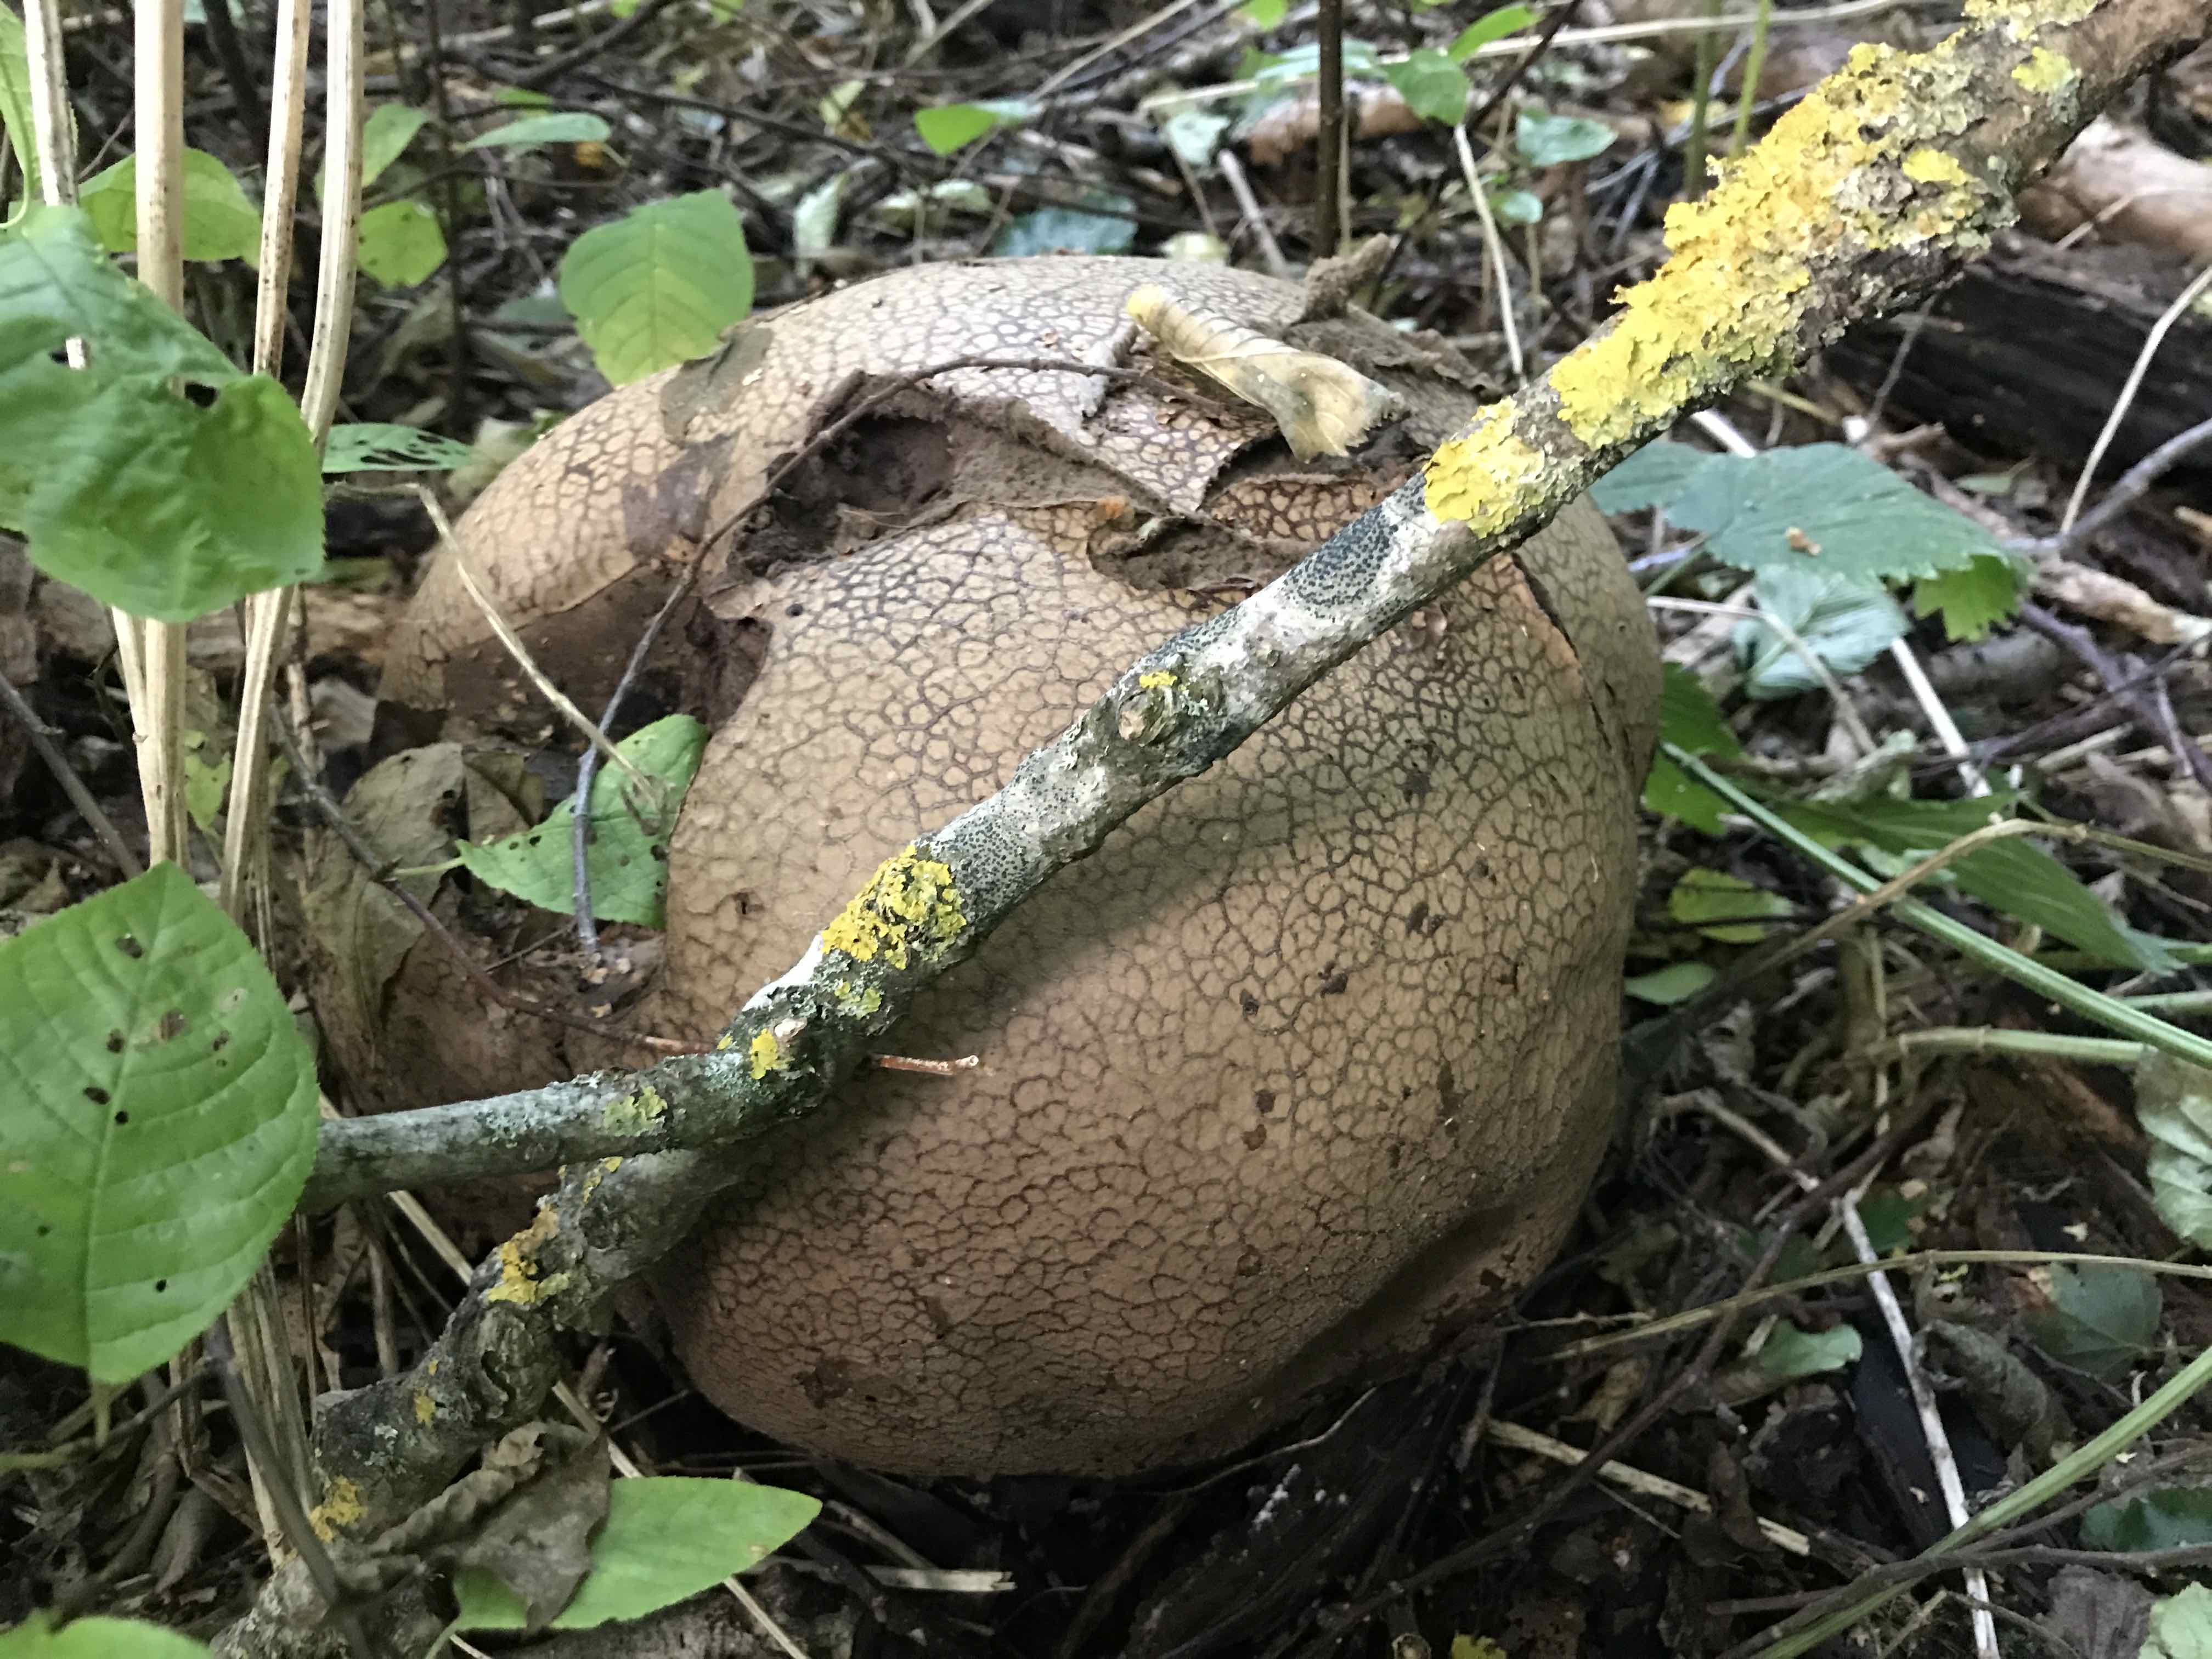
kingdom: Fungi
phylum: Basidiomycota
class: Agaricomycetes
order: Agaricales
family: Lycoperdaceae
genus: Calvatia
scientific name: Calvatia gigantea
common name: kæmpestøvbold
